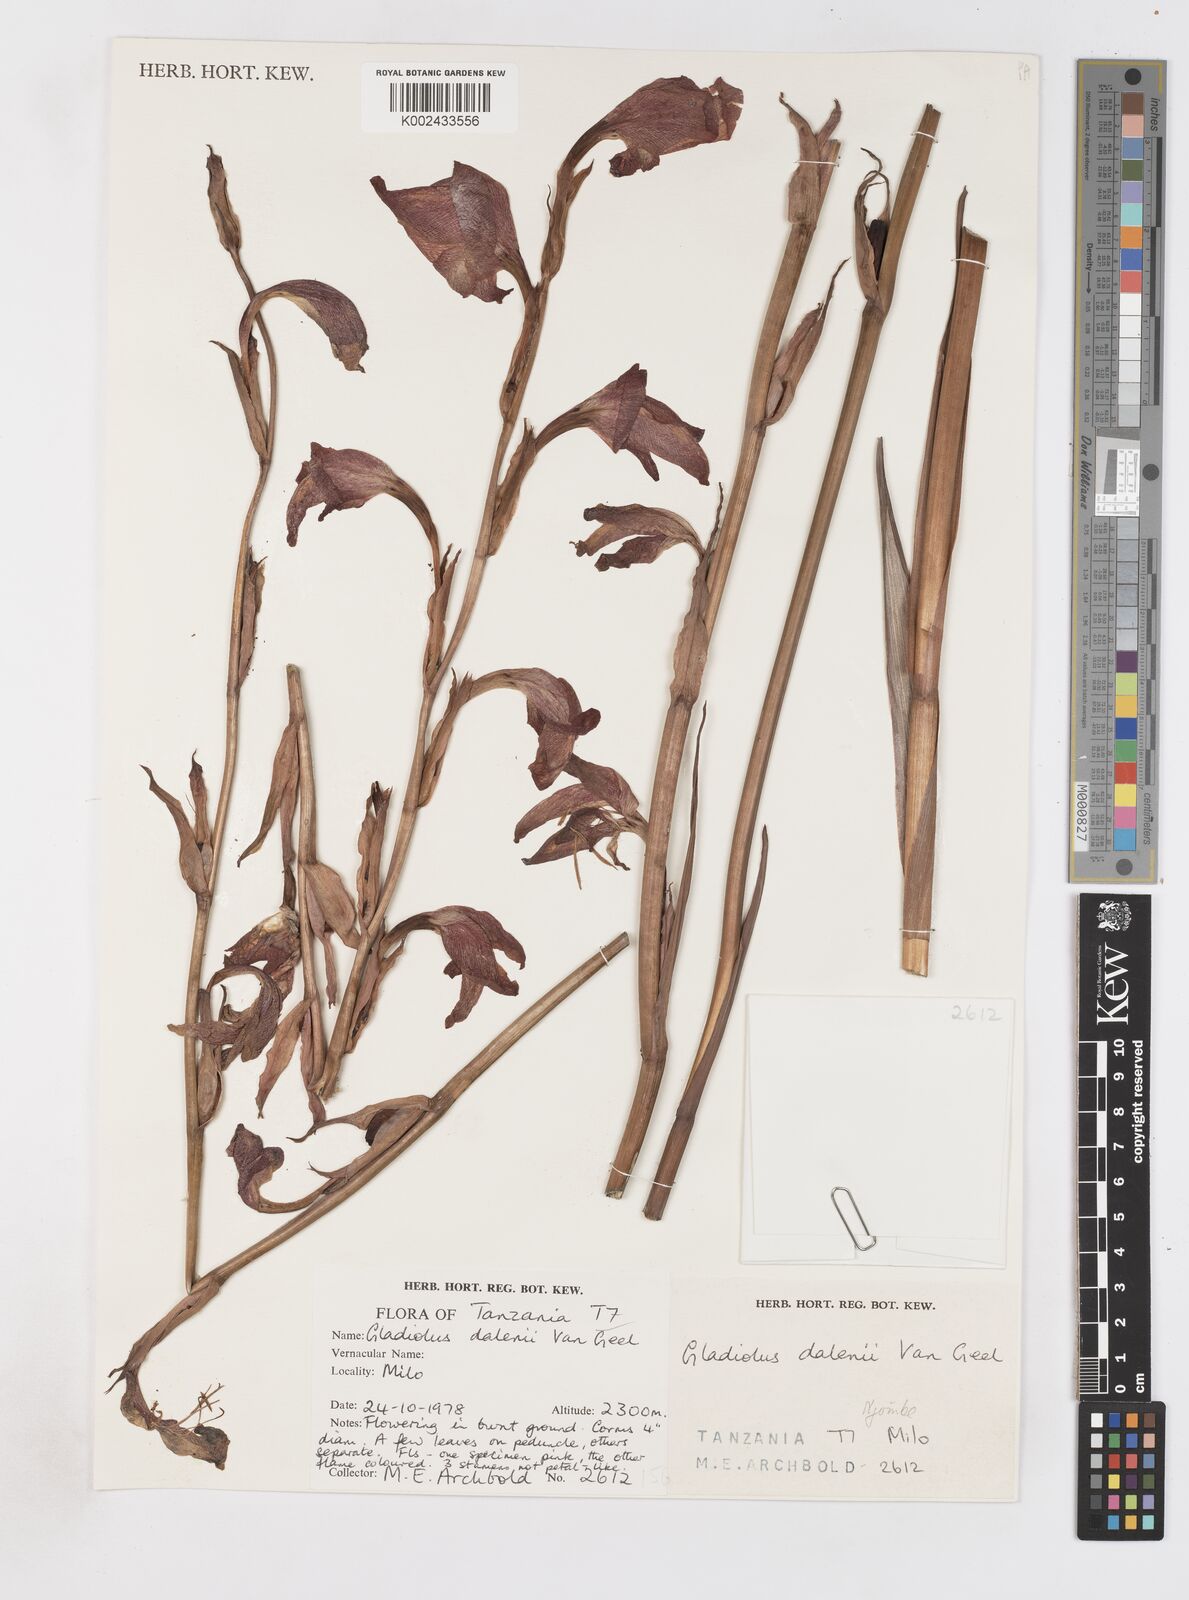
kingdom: Plantae
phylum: Tracheophyta
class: Liliopsida
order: Asparagales
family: Iridaceae
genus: Gladiolus
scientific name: Gladiolus dalenii
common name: Cornflag
